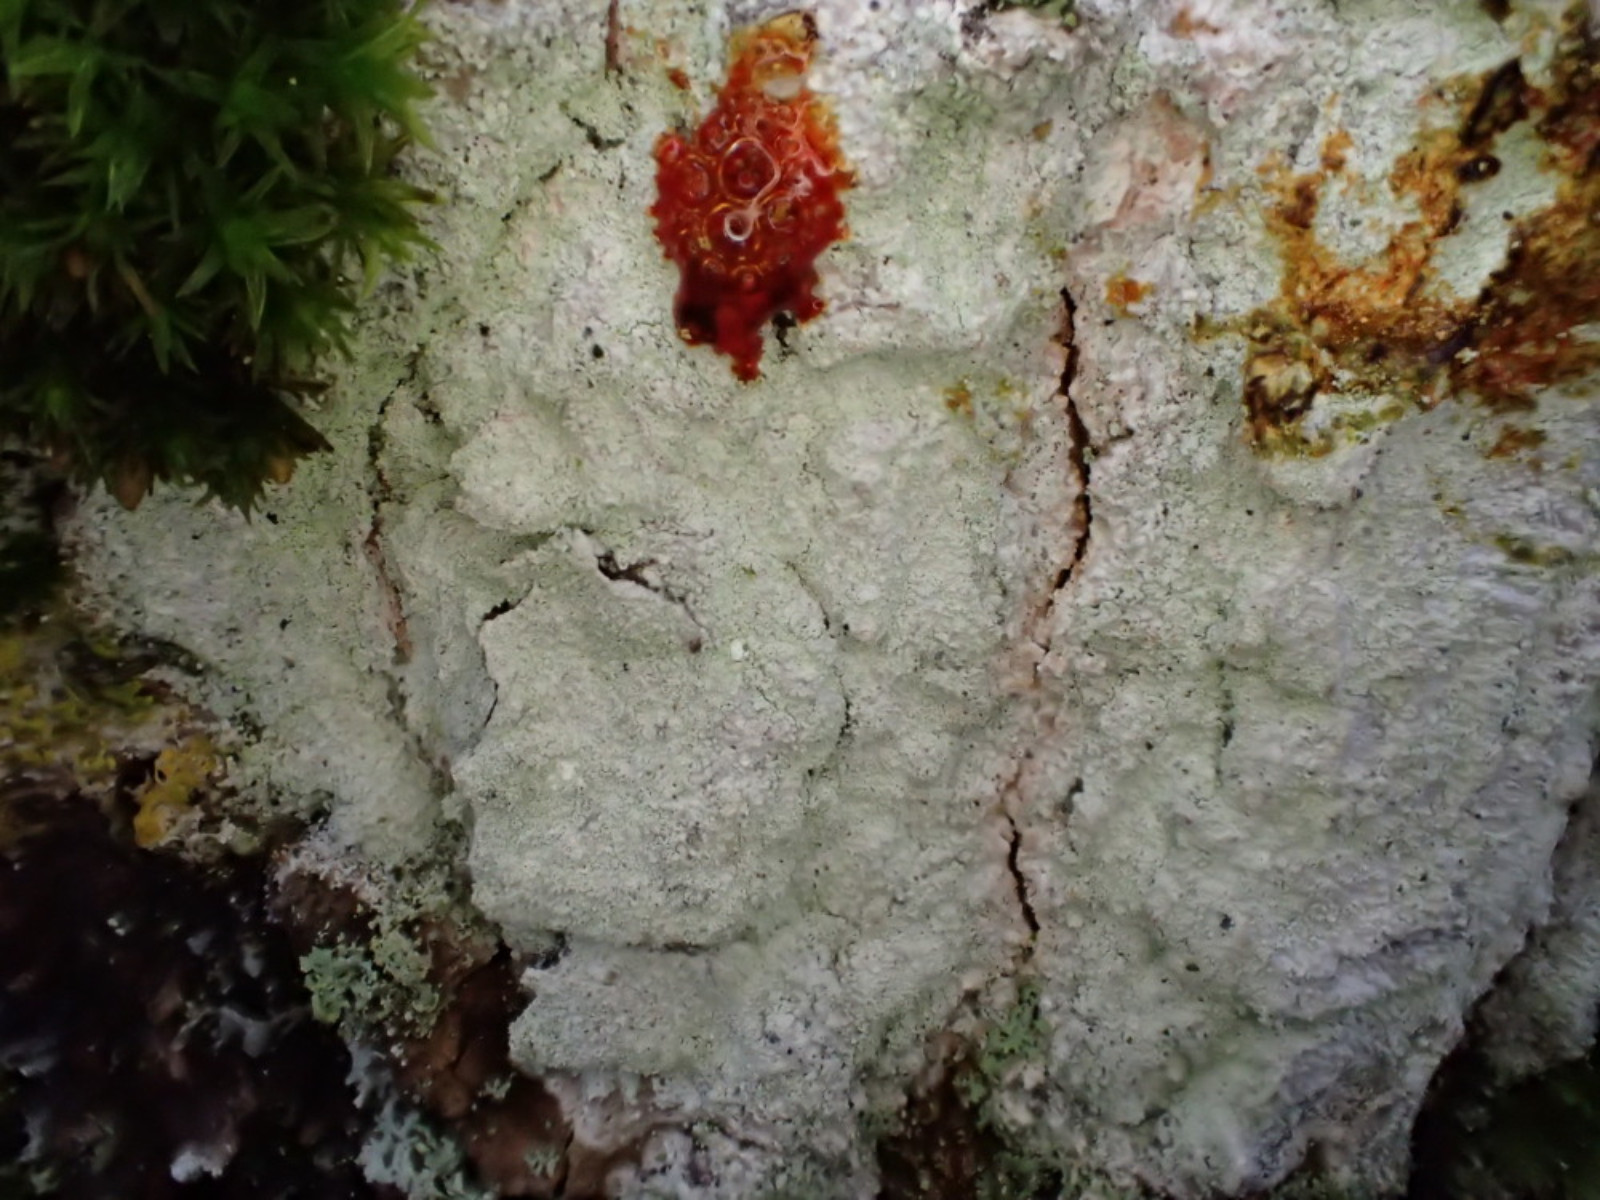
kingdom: Fungi
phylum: Ascomycota
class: Lecanoromycetes
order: Ostropales
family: Phlyctidaceae
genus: Phlyctis
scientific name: Phlyctis argena
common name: almindelig sølvlav
